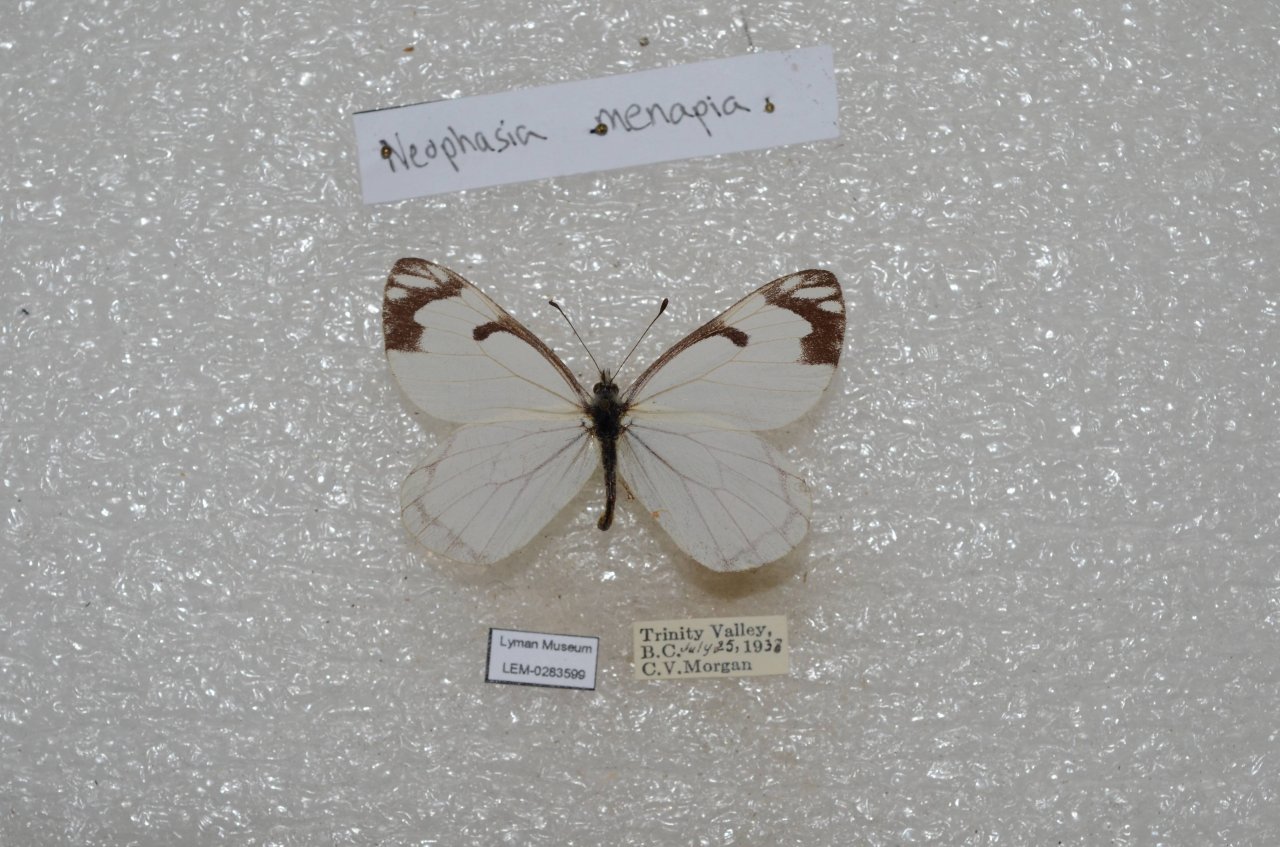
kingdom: Animalia
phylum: Arthropoda
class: Insecta
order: Lepidoptera
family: Pieridae
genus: Neophasia
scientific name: Neophasia menapia
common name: Pine White
